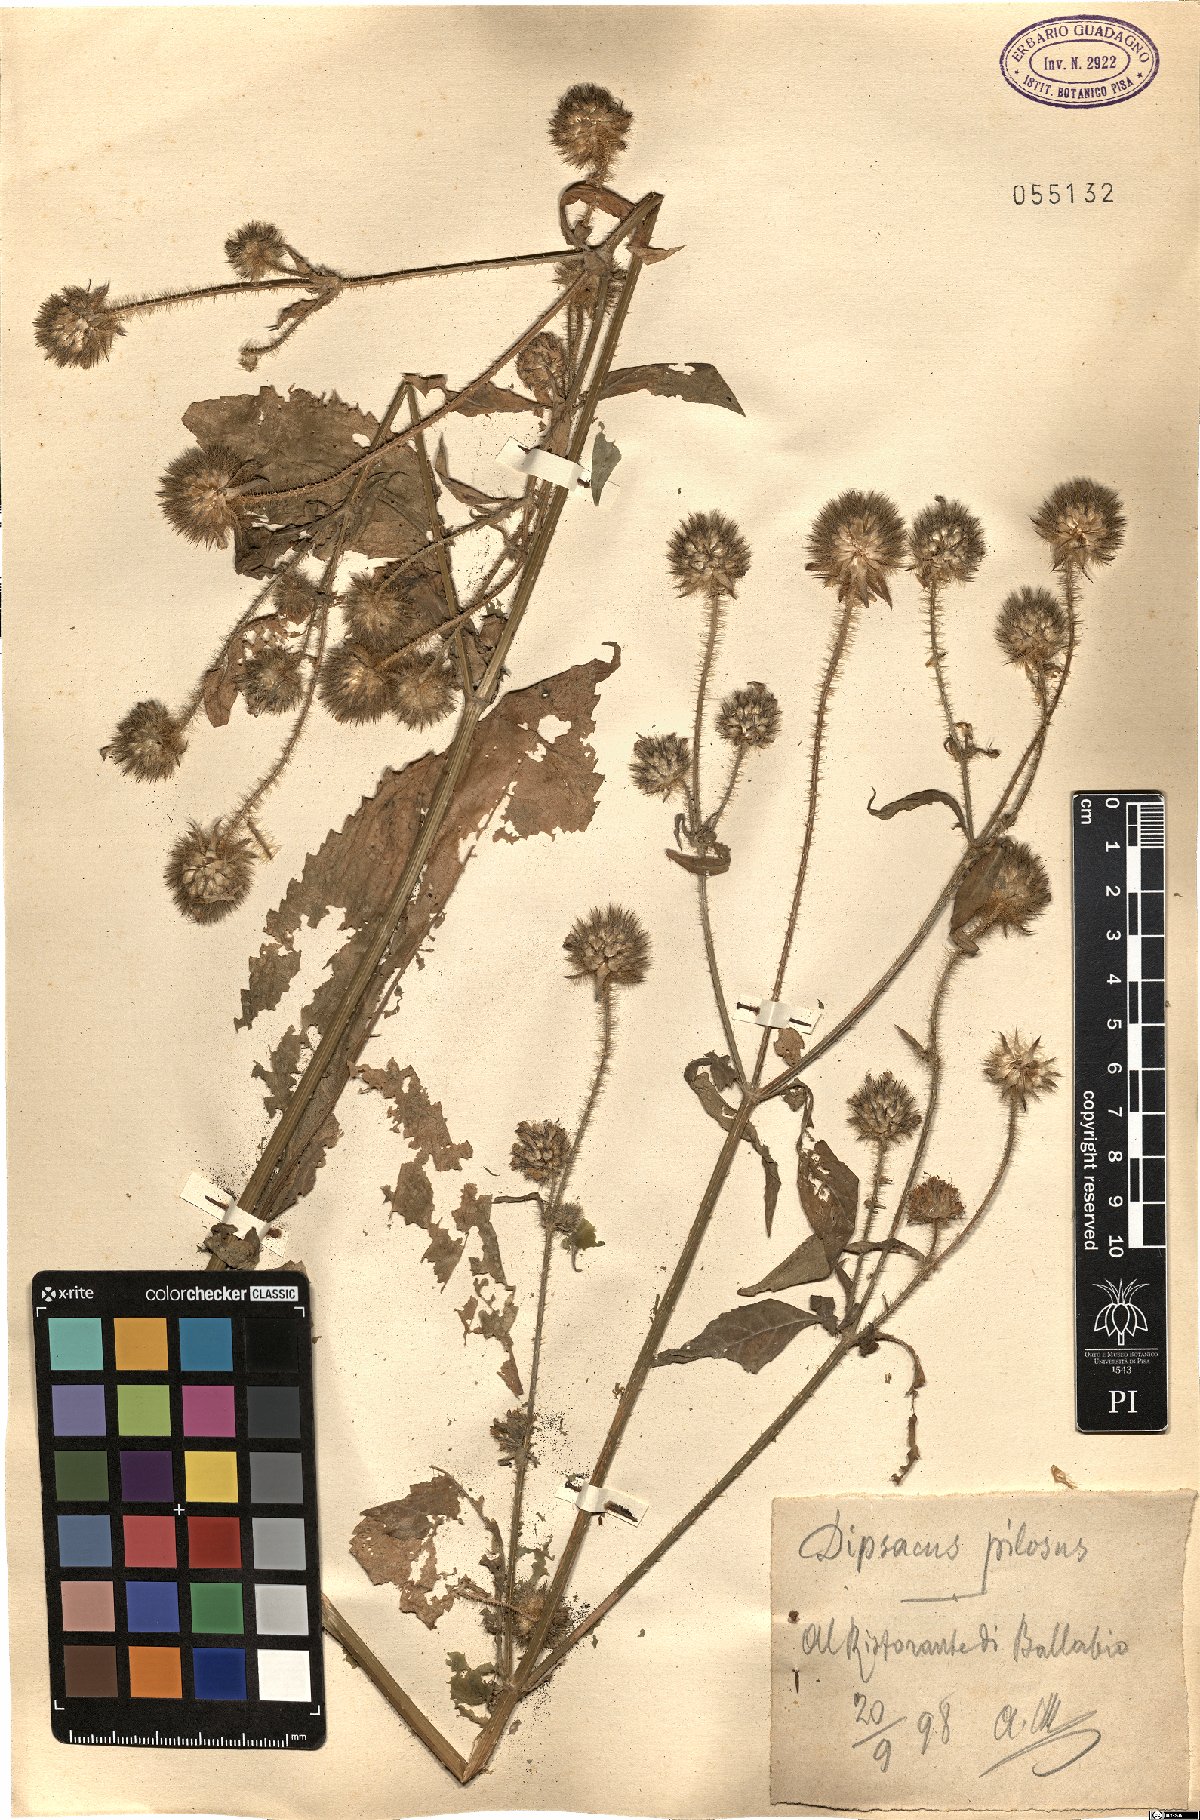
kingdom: Plantae
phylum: Tracheophyta
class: Magnoliopsida
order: Dipsacales
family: Caprifoliaceae
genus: Dipsacus
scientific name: Dipsacus pilosus
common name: Small teasel
